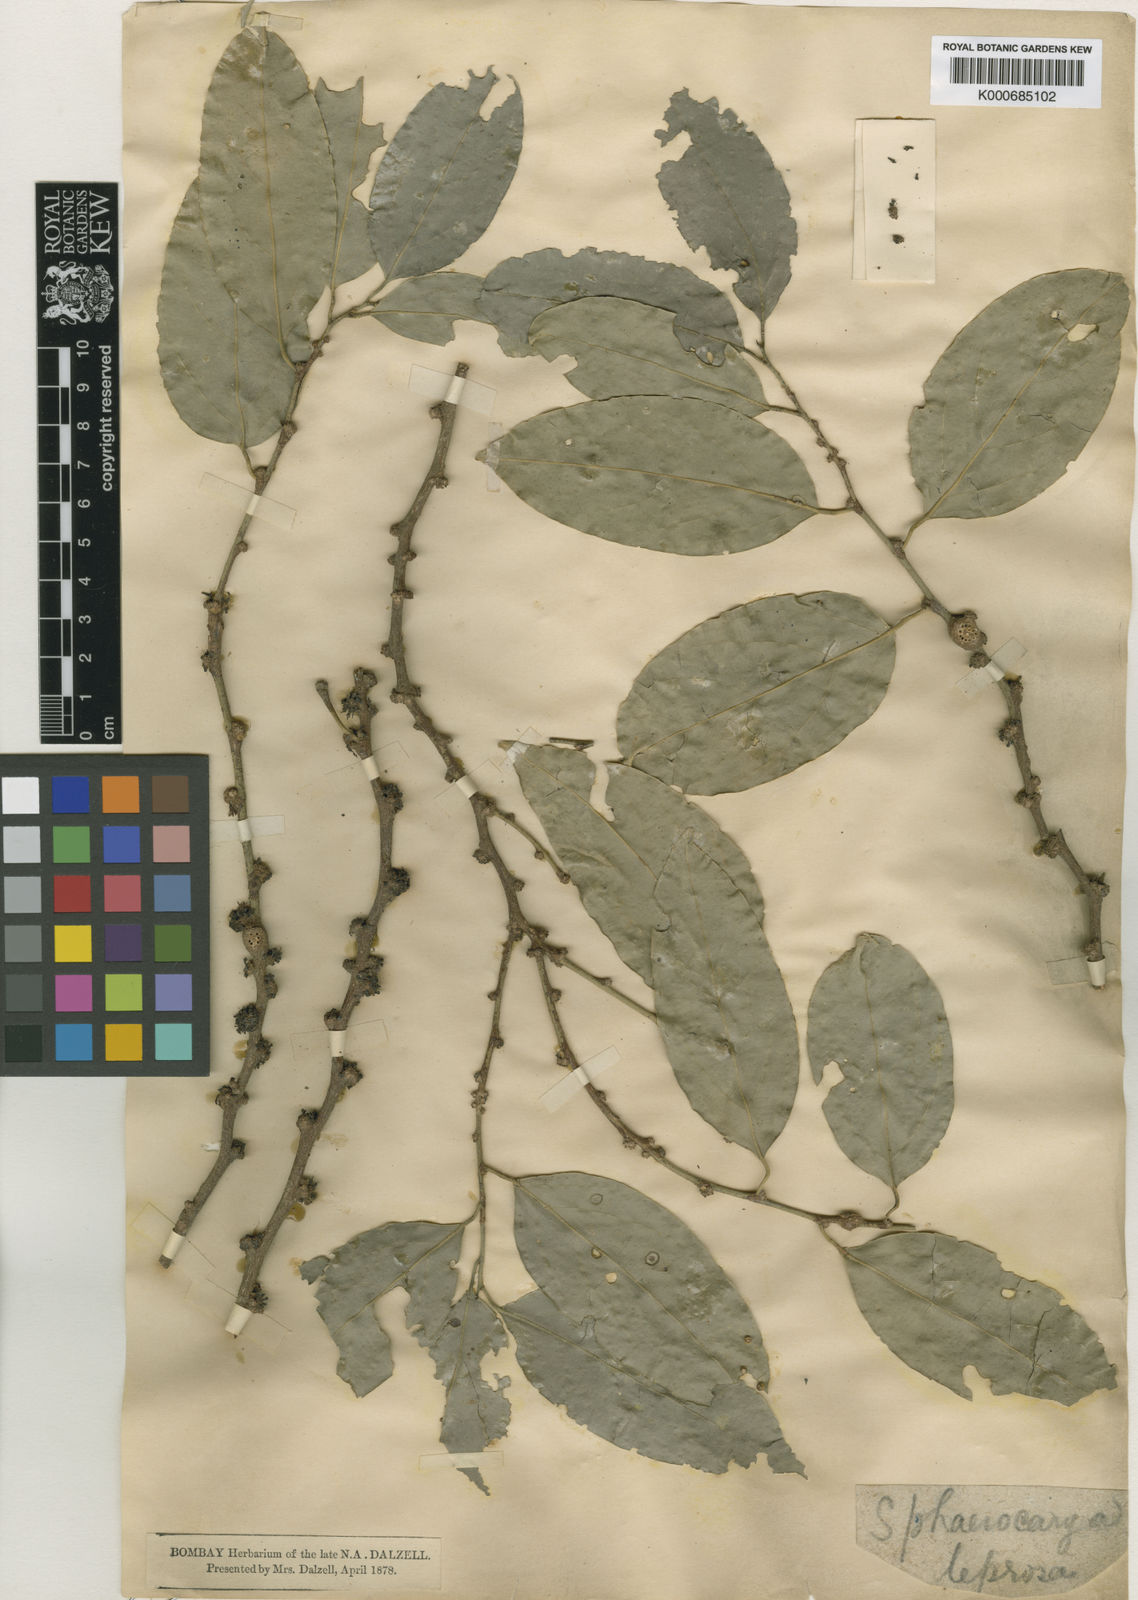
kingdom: Plantae
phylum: Tracheophyta
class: Magnoliopsida
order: Santalales
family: Strombosiaceae
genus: Strombosia
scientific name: Strombosia ceylanica
